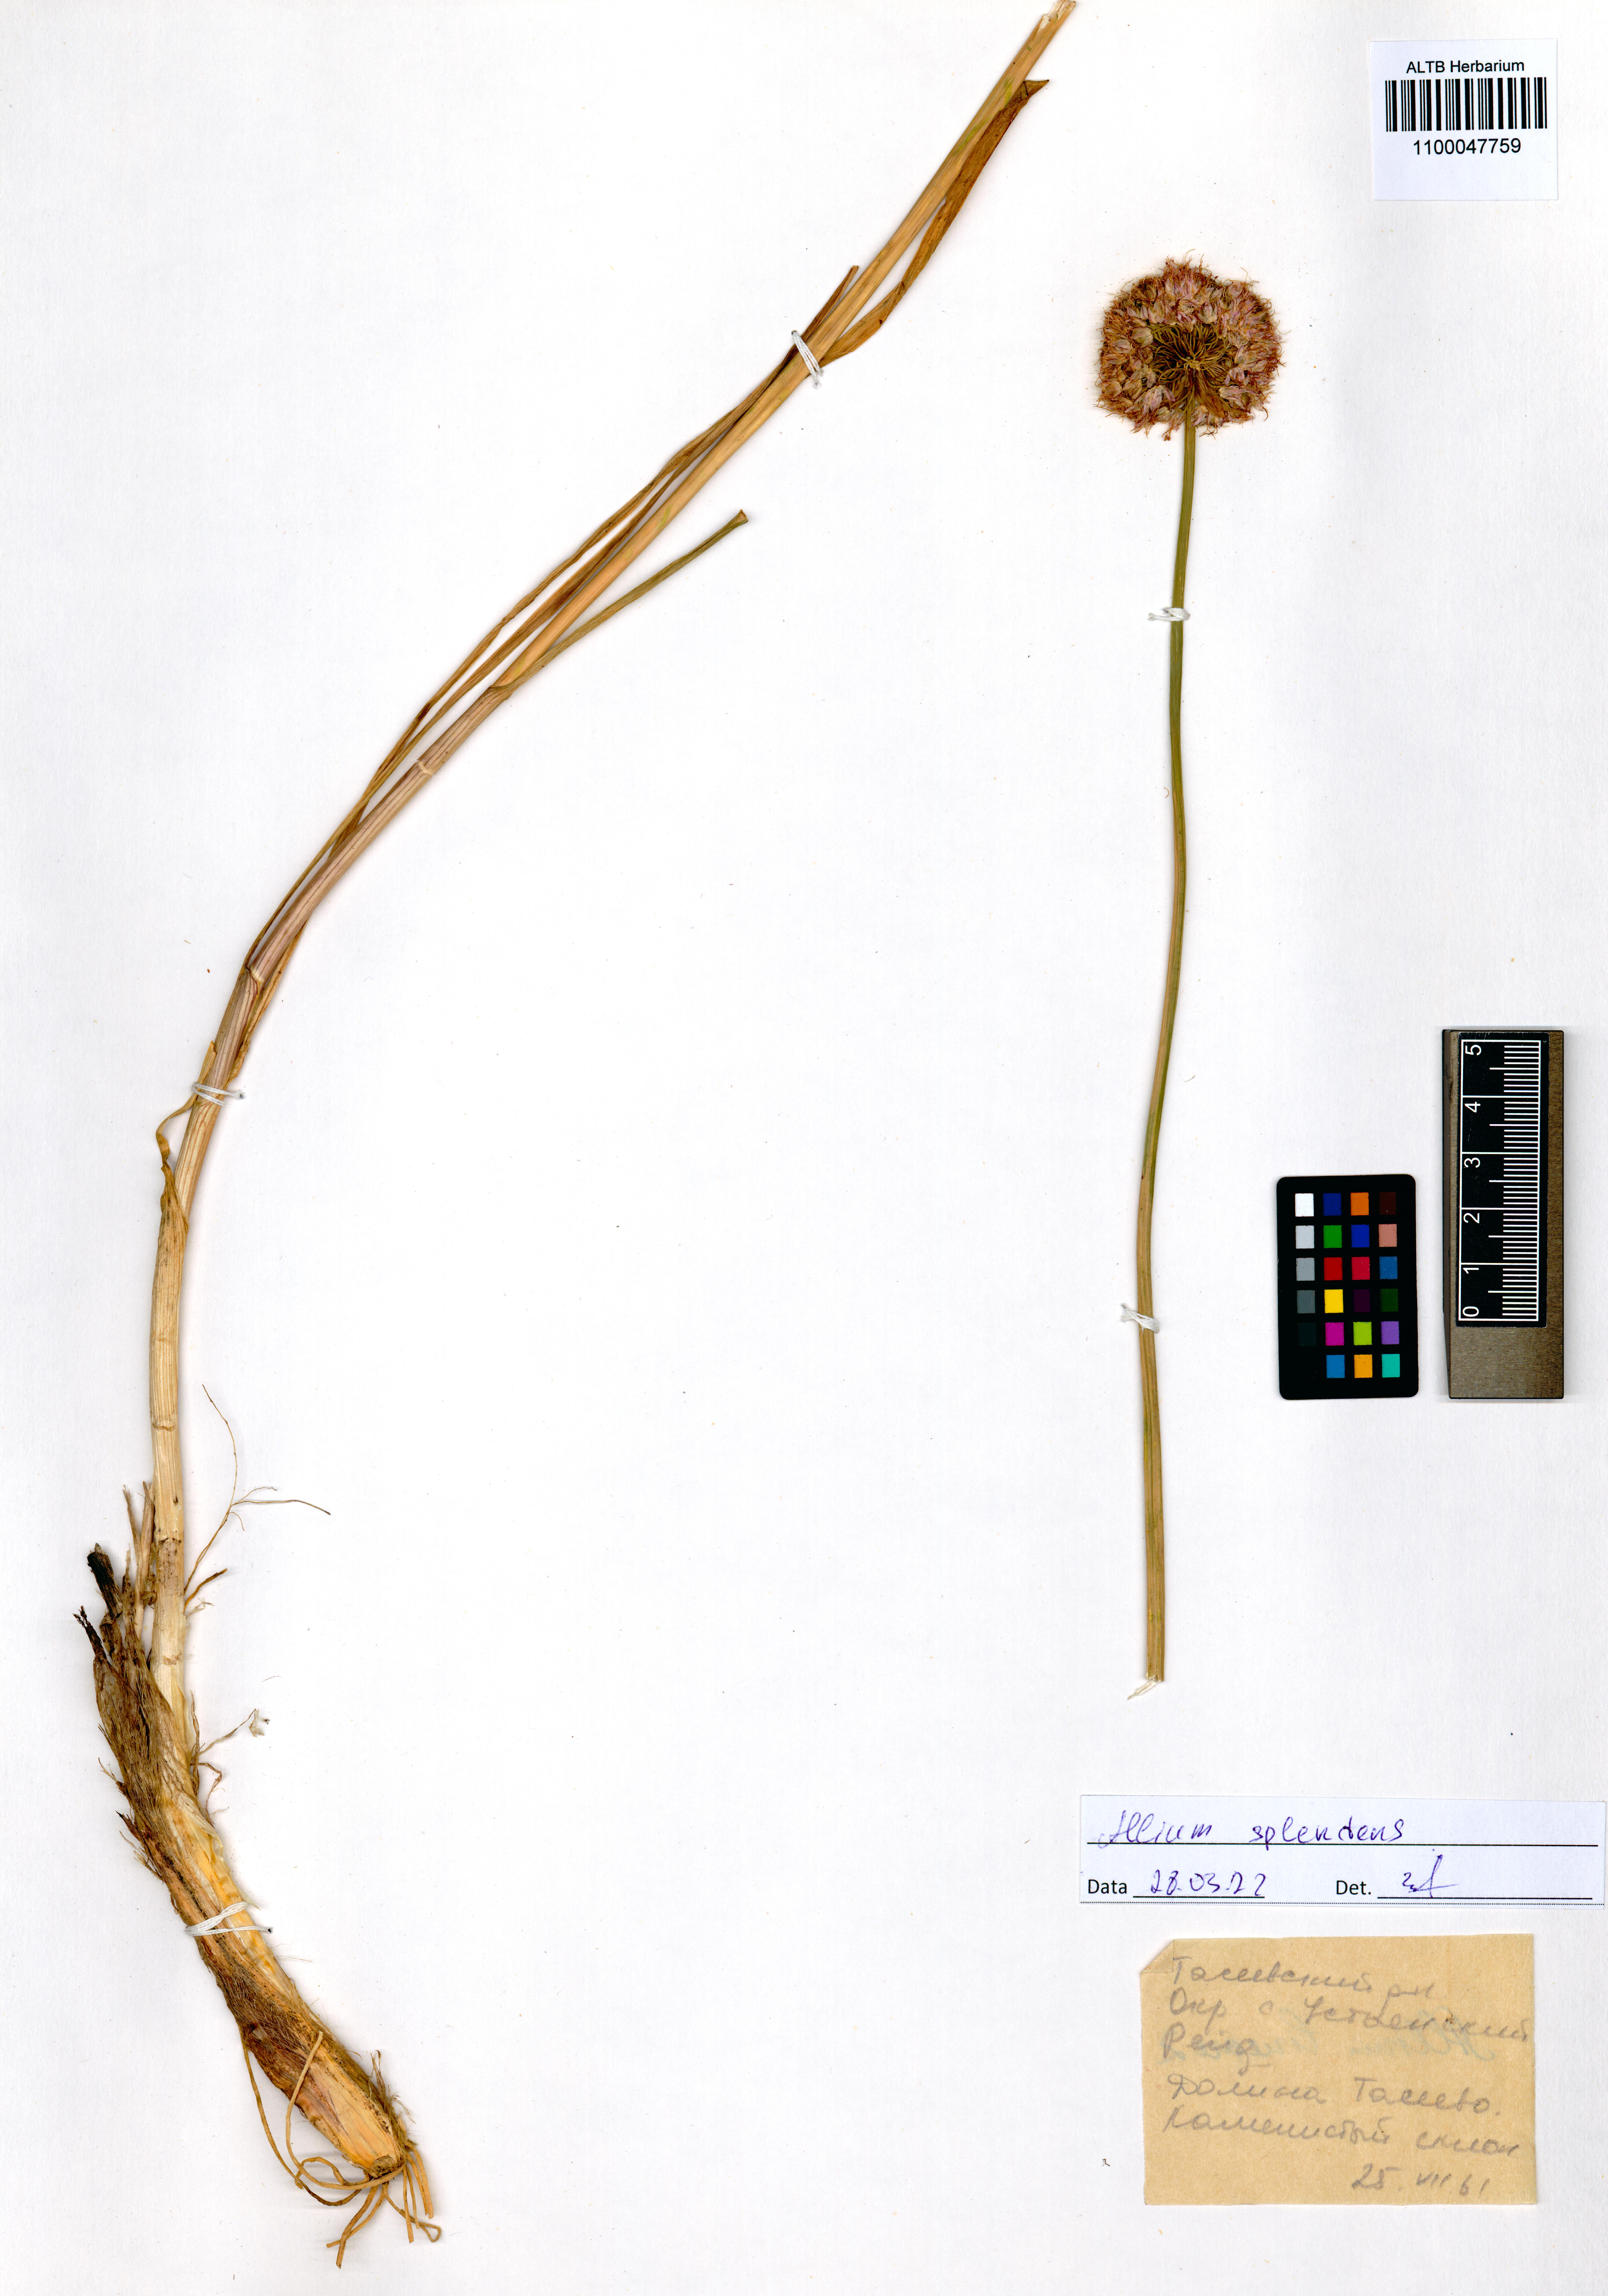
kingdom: Plantae
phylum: Tracheophyta
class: Liliopsida
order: Asparagales
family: Amaryllidaceae
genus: Allium
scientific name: Allium splendens
